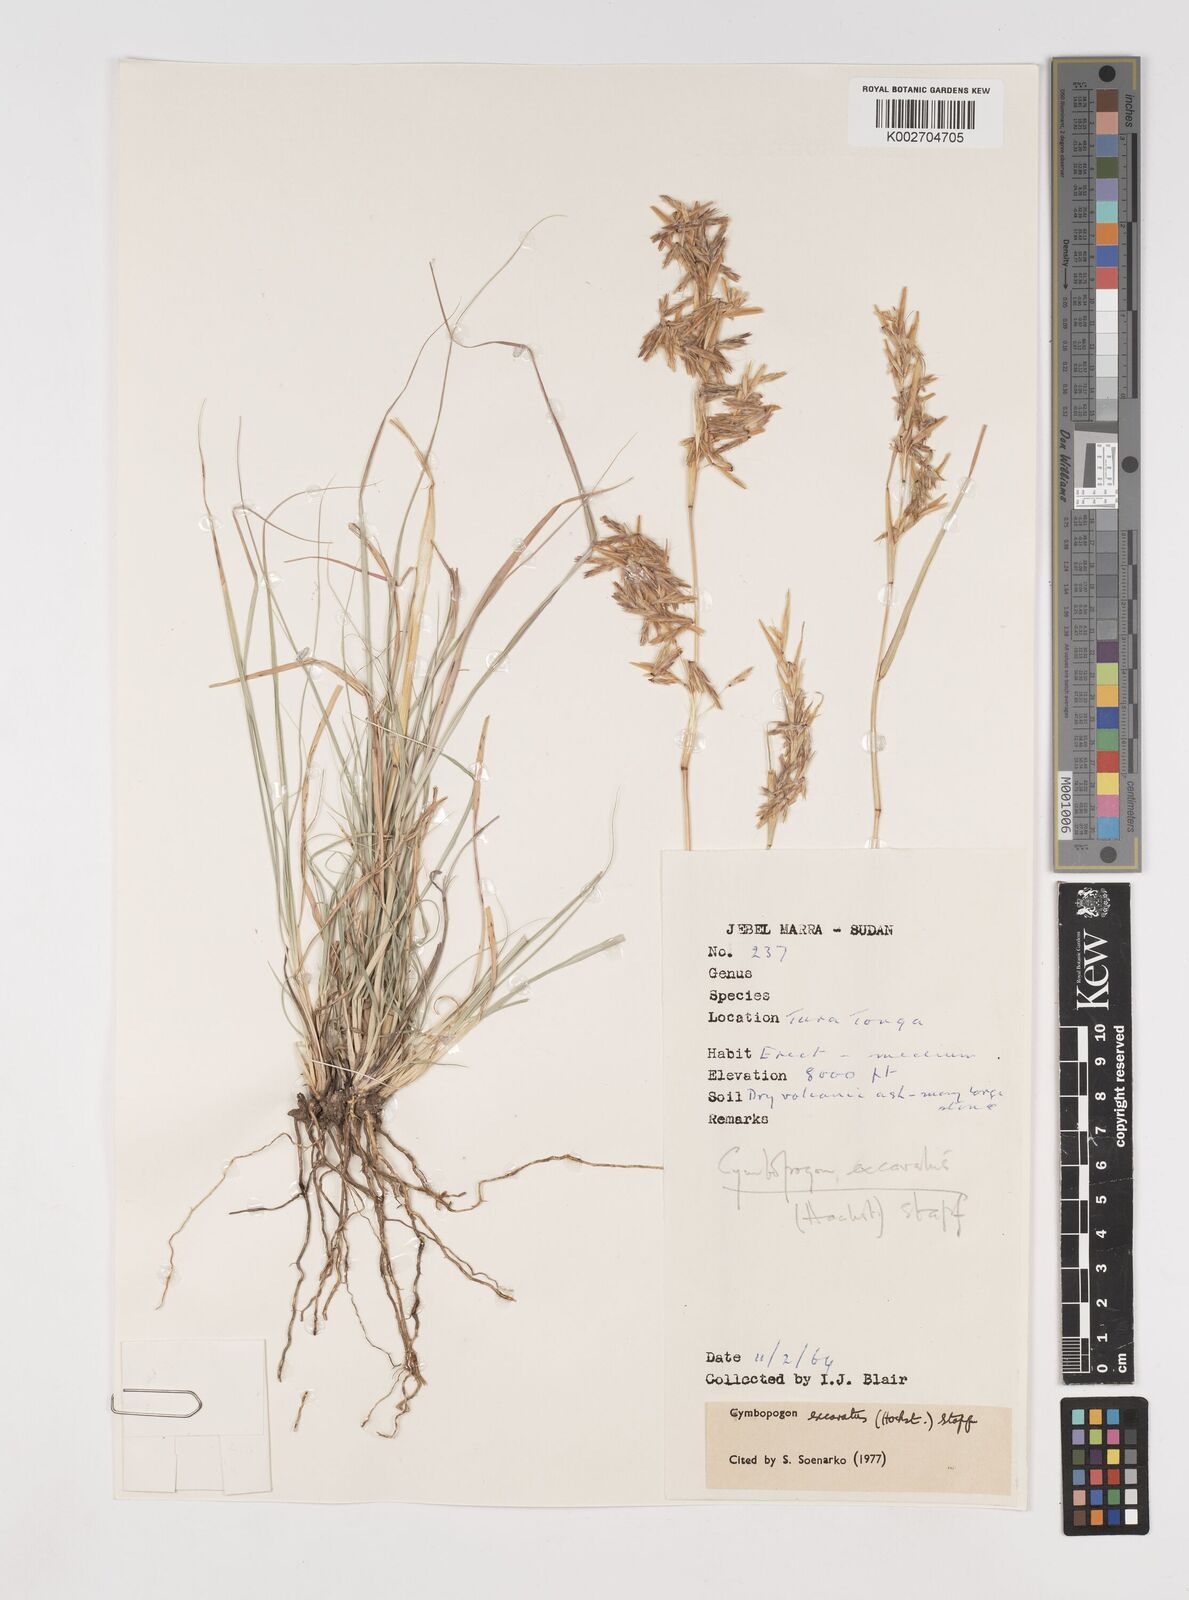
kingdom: Plantae
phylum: Tracheophyta
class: Liliopsida
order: Poales
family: Poaceae
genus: Cymbopogon
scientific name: Cymbopogon
